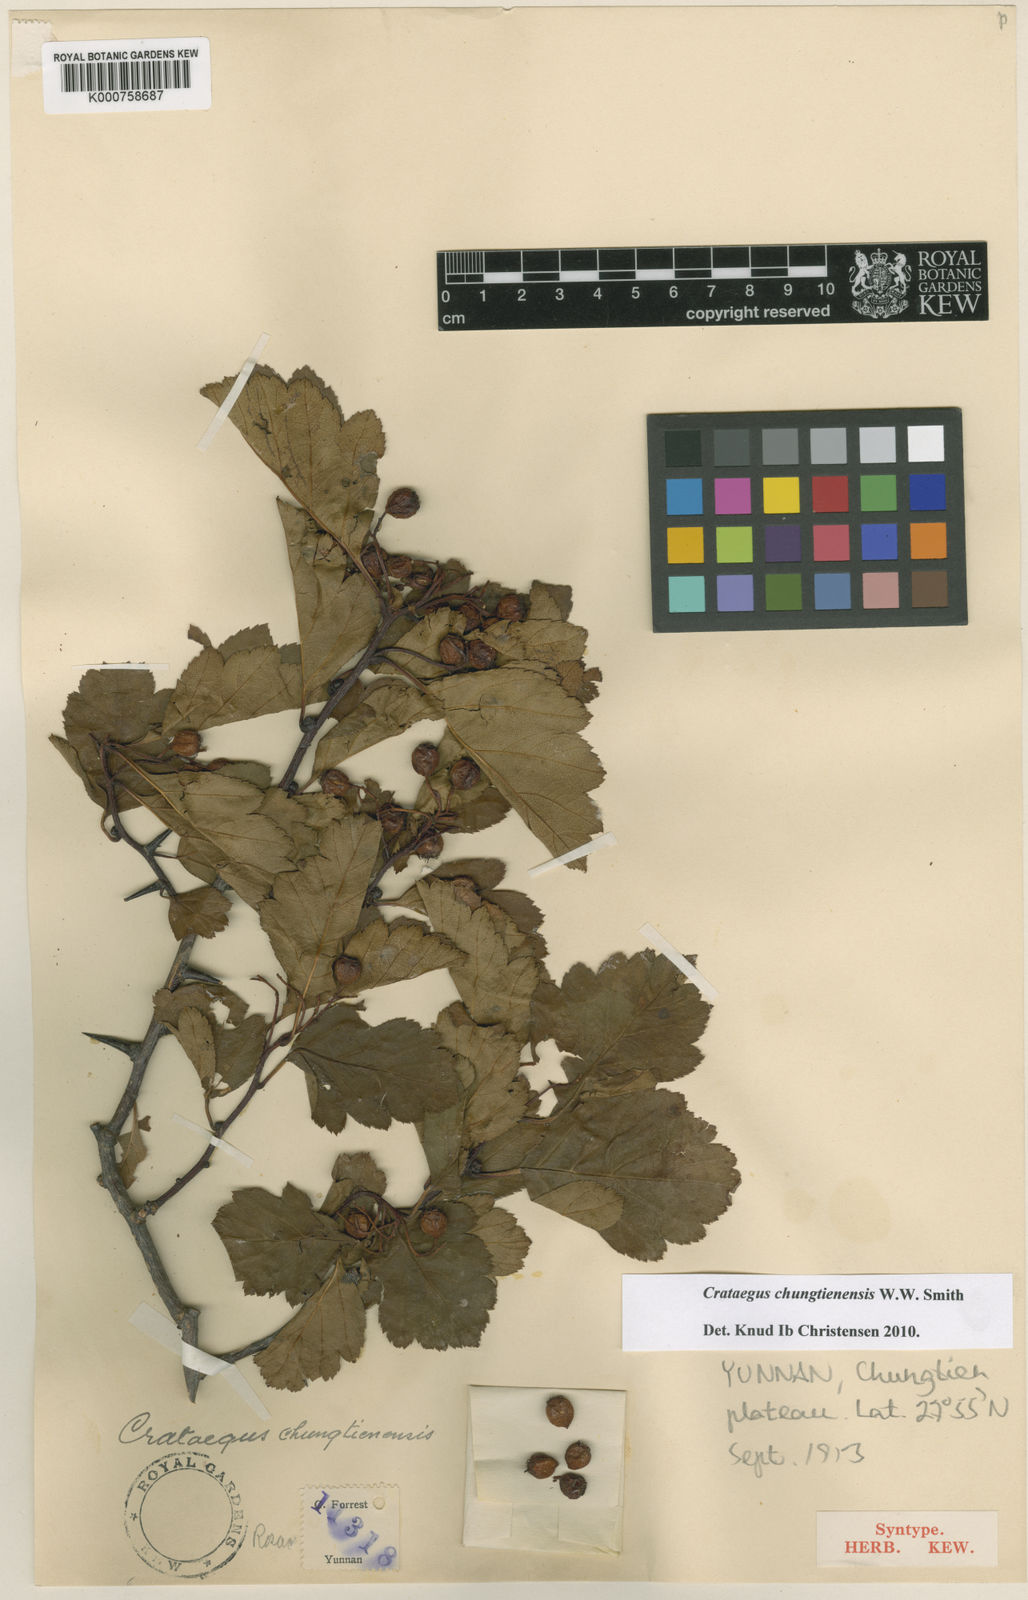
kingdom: Plantae
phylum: Tracheophyta
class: Magnoliopsida
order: Rosales
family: Rosaceae
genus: Crataegus
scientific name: Crataegus chungtienensis
